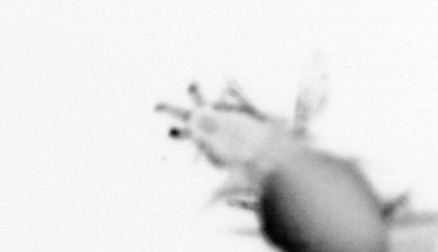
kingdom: Animalia
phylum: Annelida
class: Polychaeta
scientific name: Polychaeta
